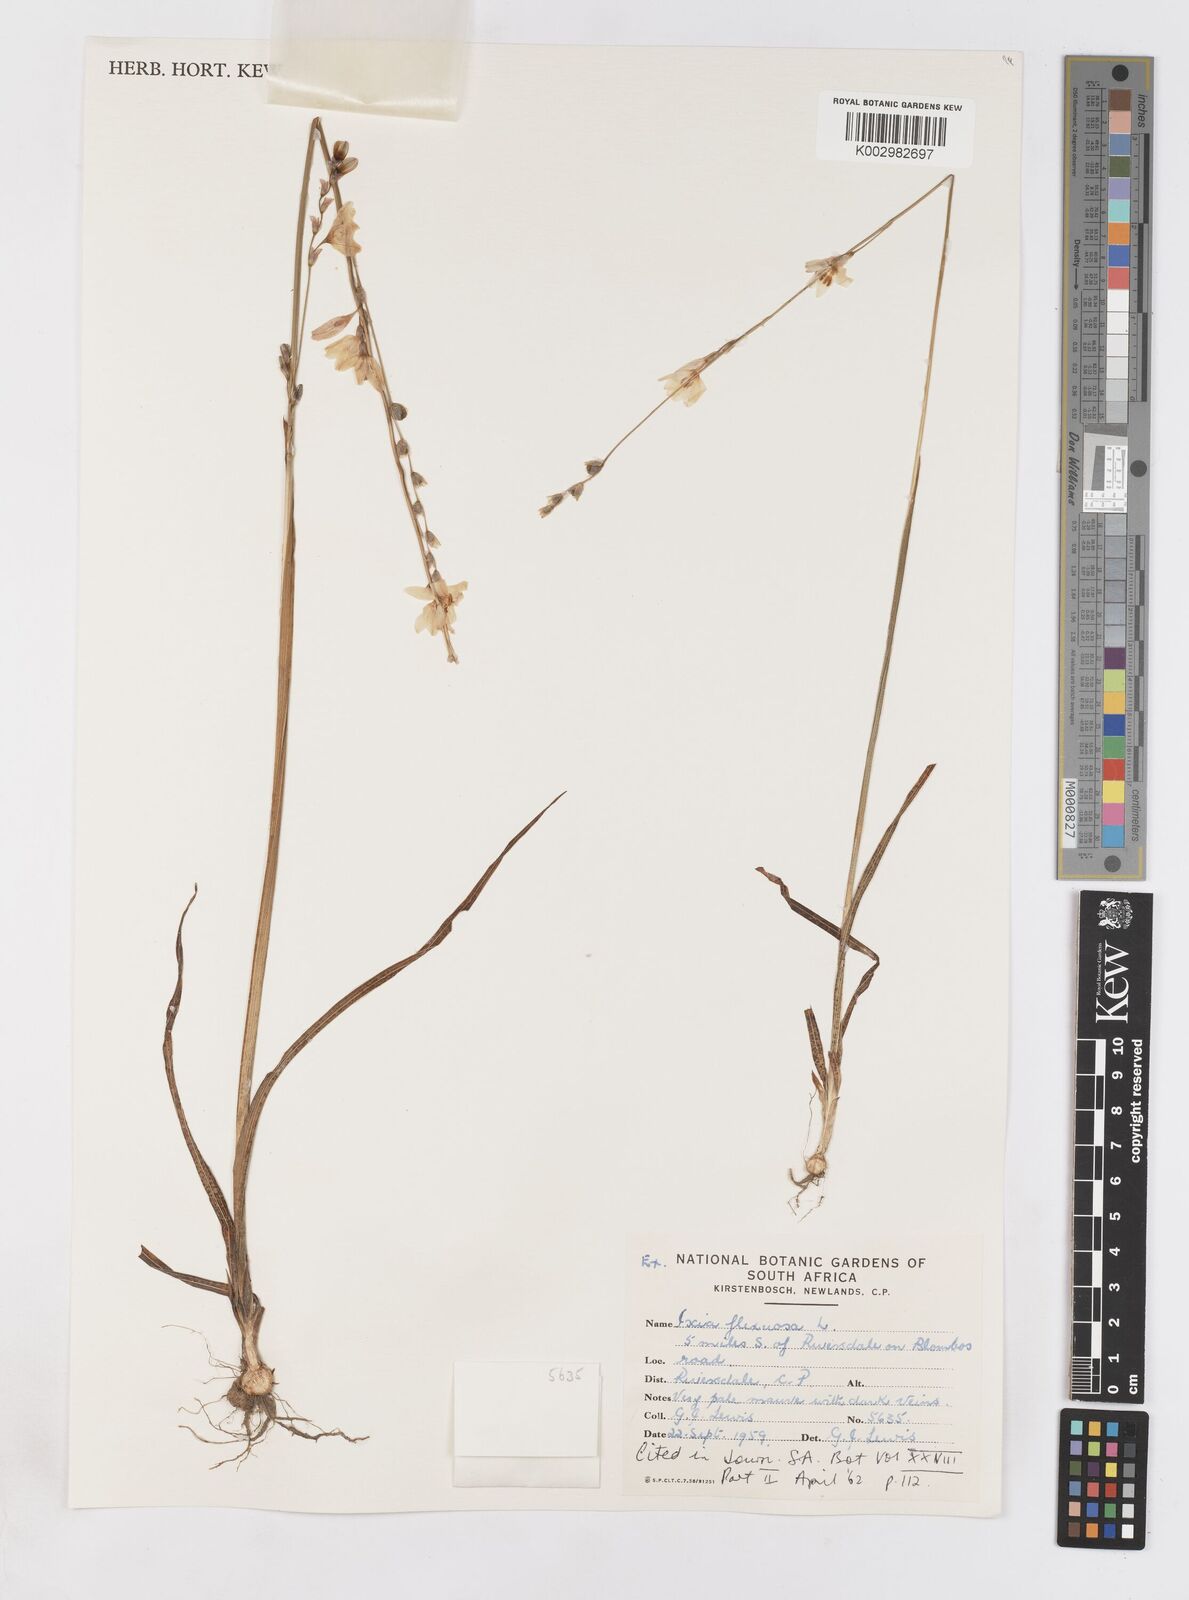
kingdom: Plantae
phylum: Tracheophyta
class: Liliopsida
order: Asparagales
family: Iridaceae
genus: Ixia
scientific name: Ixia flexuosa
